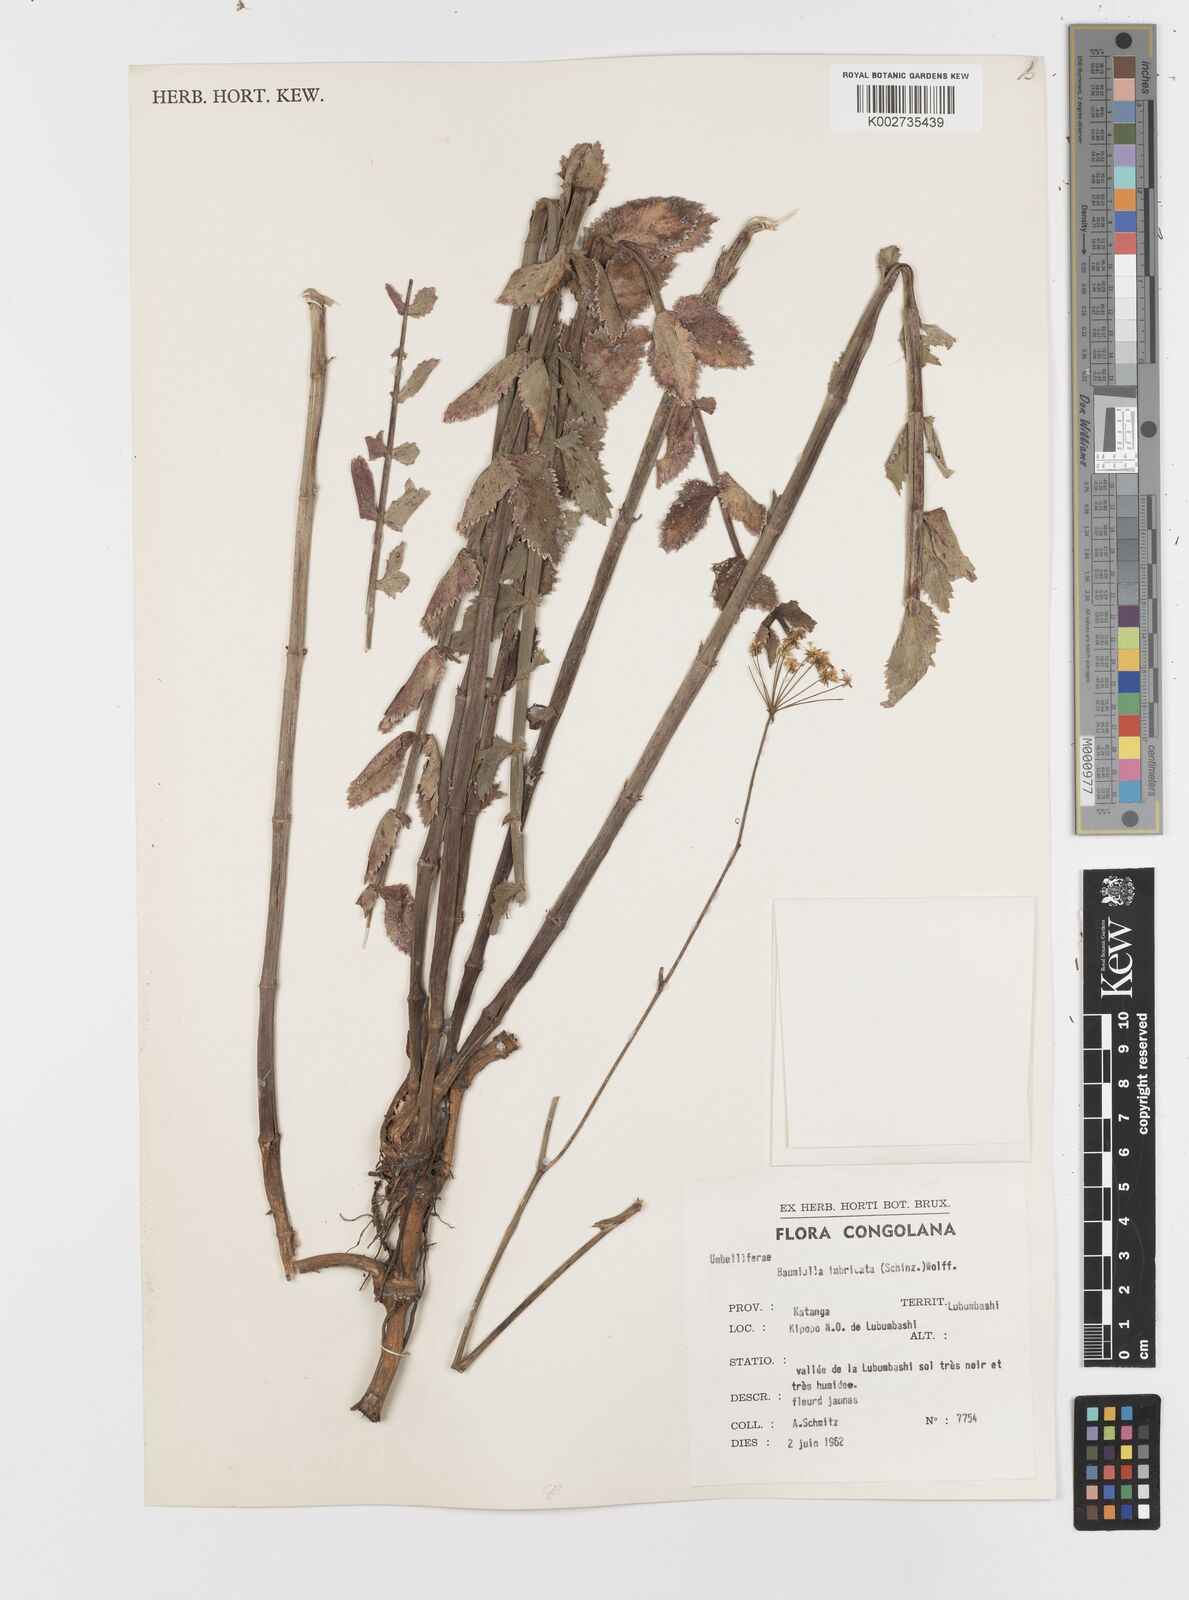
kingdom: Plantae
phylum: Tracheophyta
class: Magnoliopsida
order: Apiales
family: Apiaceae
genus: Berula
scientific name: Berula imbricata
